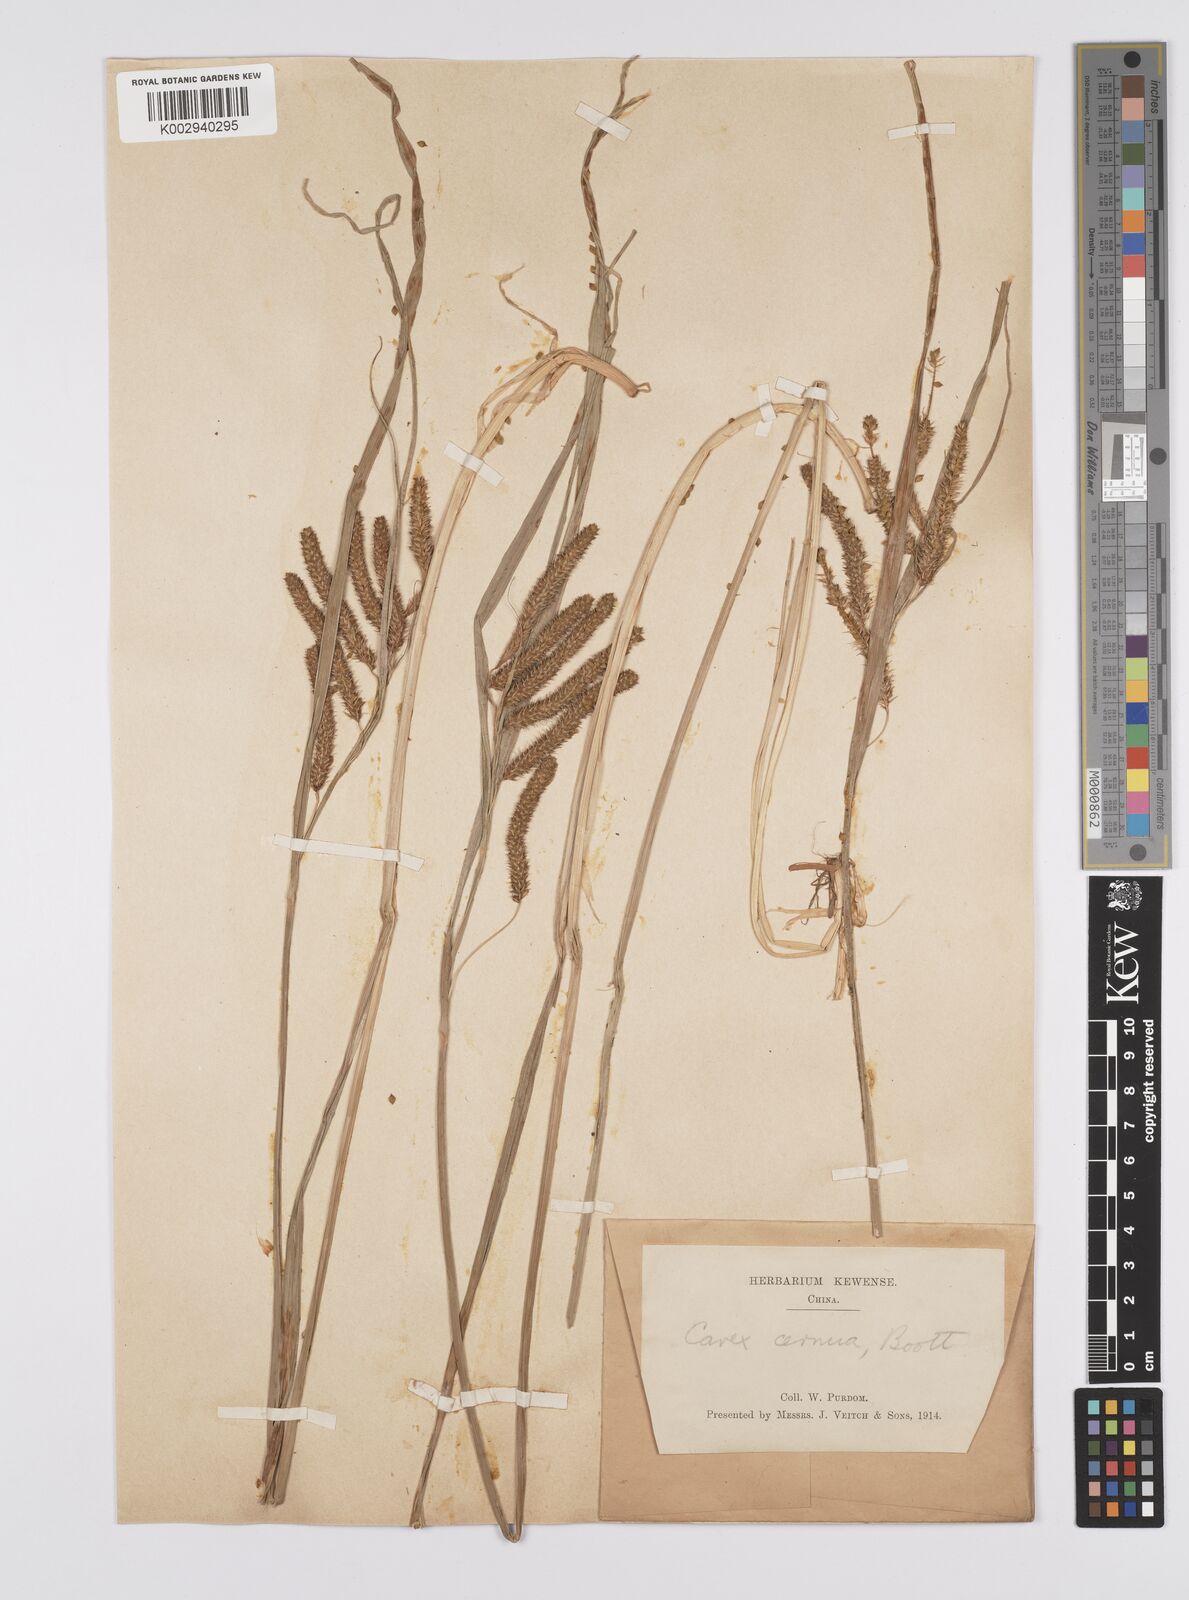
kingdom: Plantae
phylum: Tracheophyta
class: Liliopsida
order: Poales
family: Cyperaceae
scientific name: Cyperaceae
